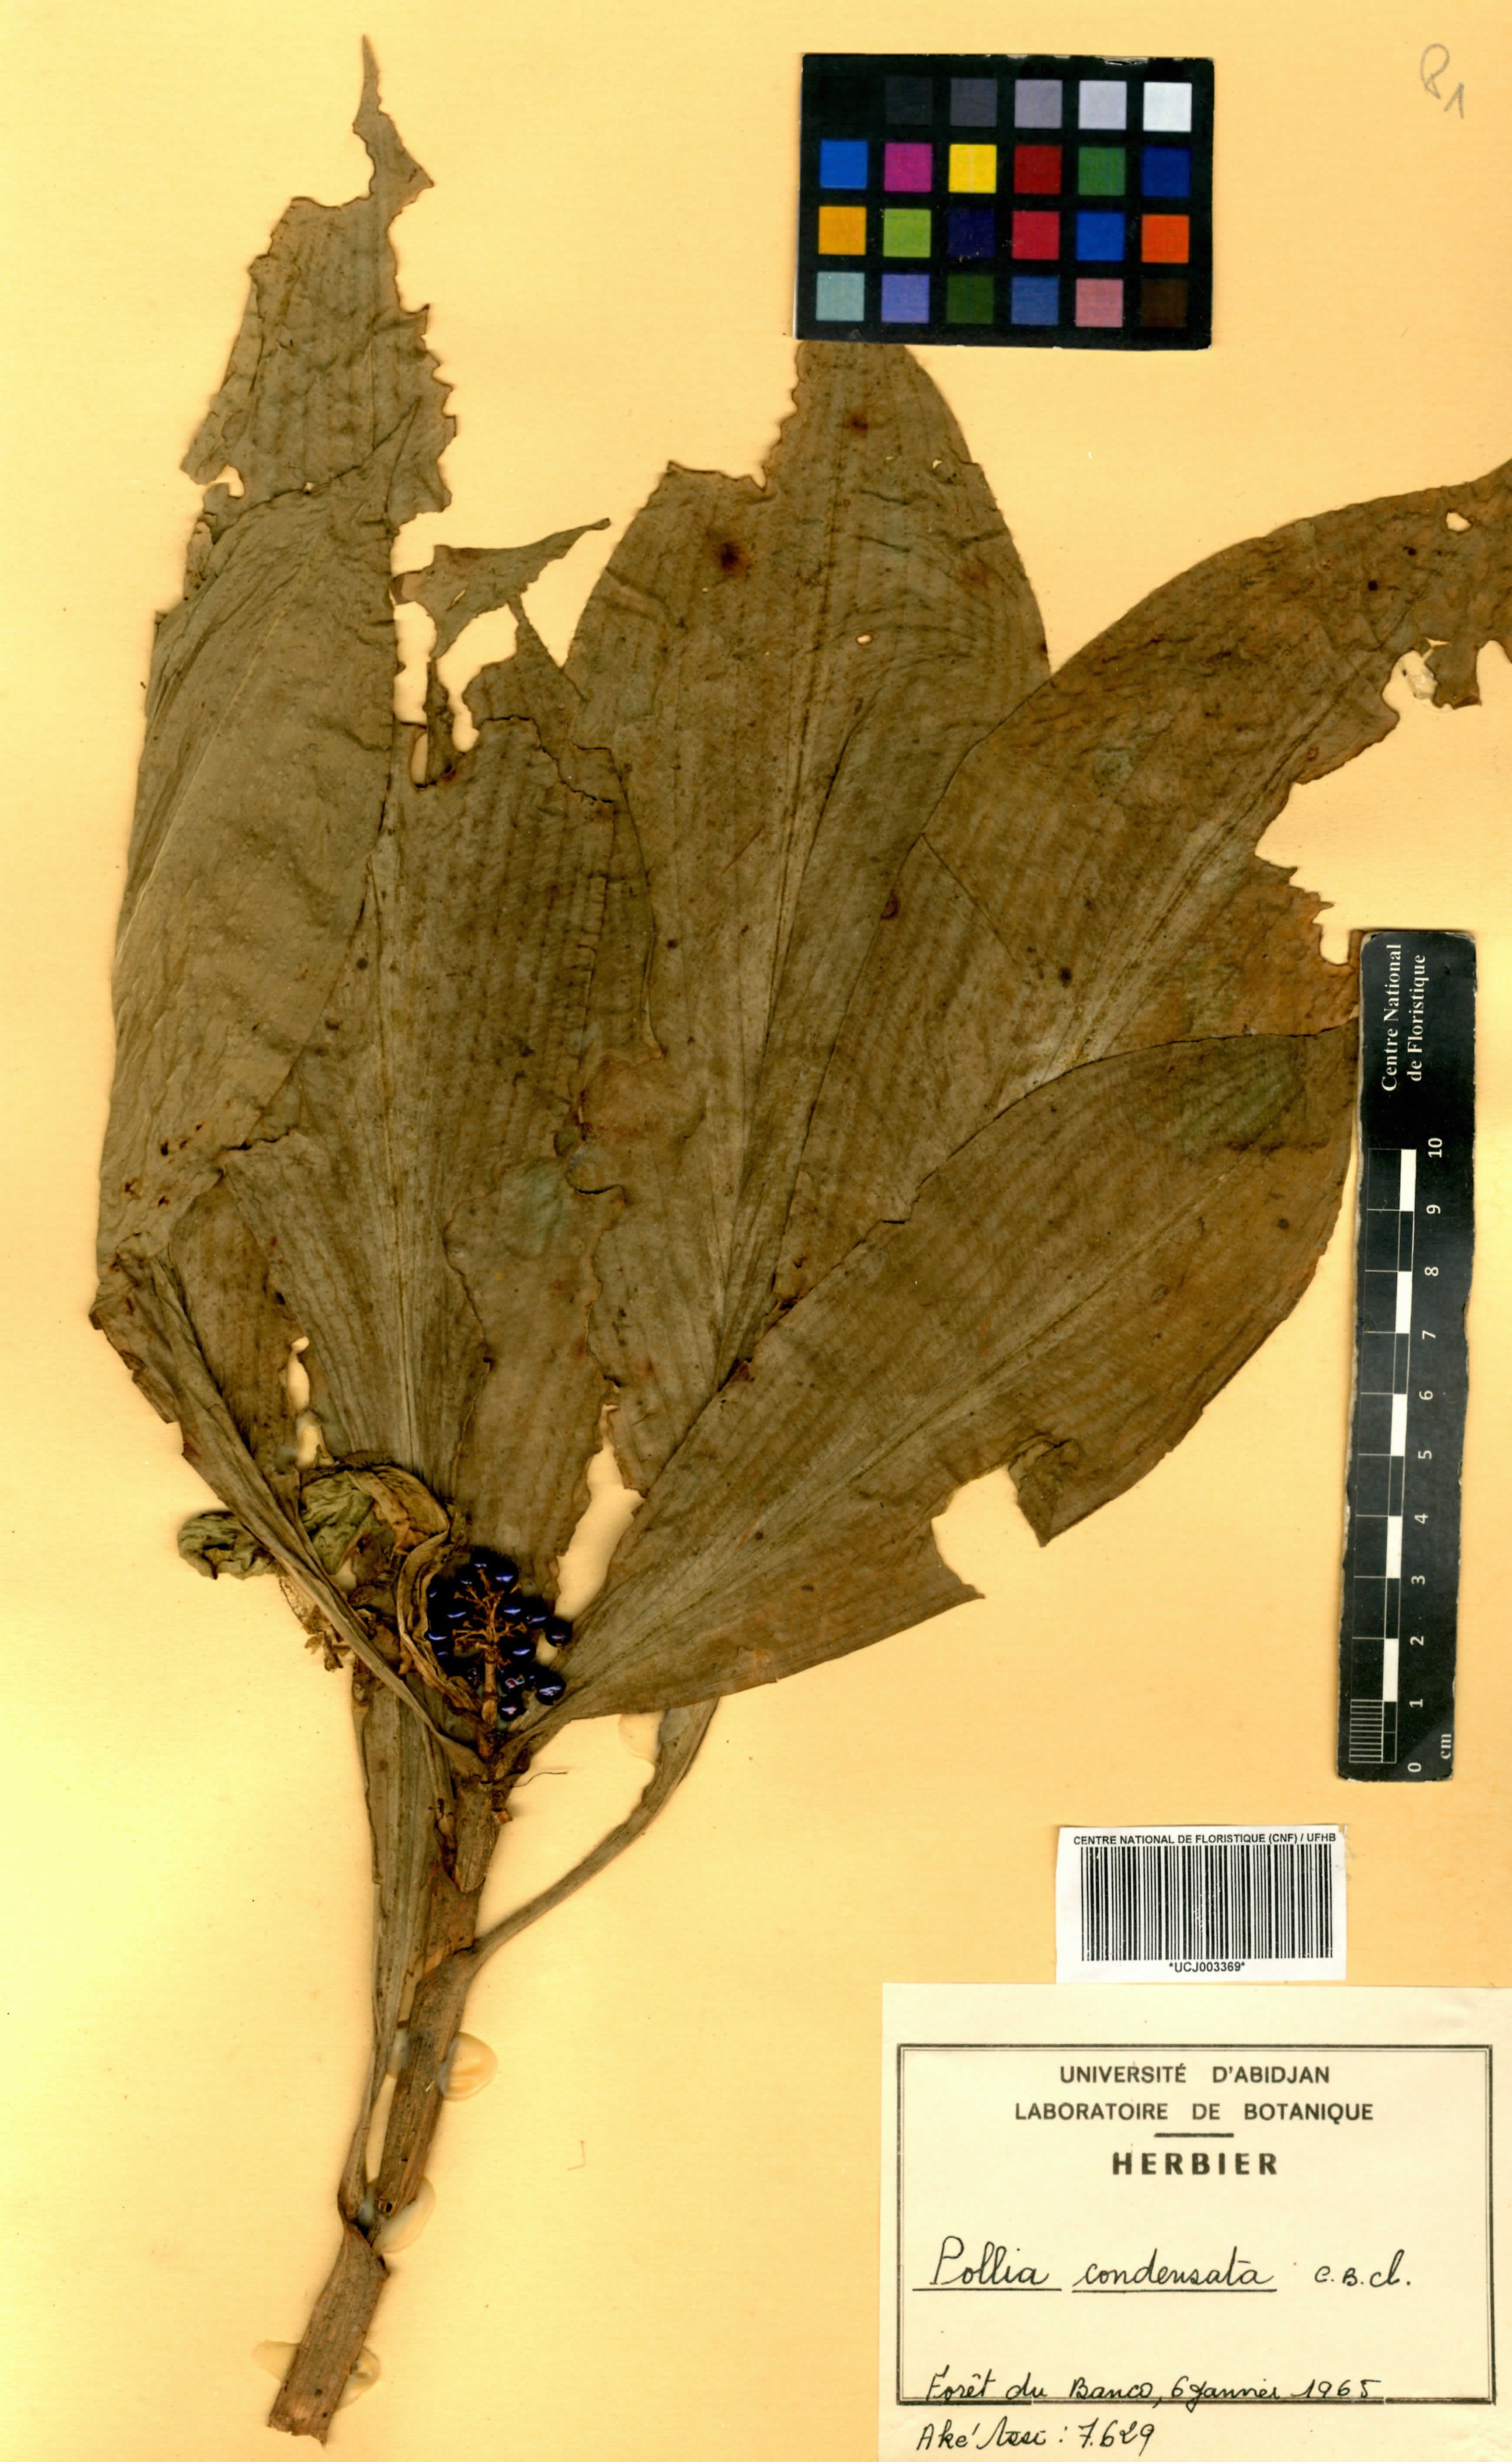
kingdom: Plantae
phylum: Tracheophyta
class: Liliopsida
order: Commelinales
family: Commelinaceae
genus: Pollia
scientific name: Pollia condensata
